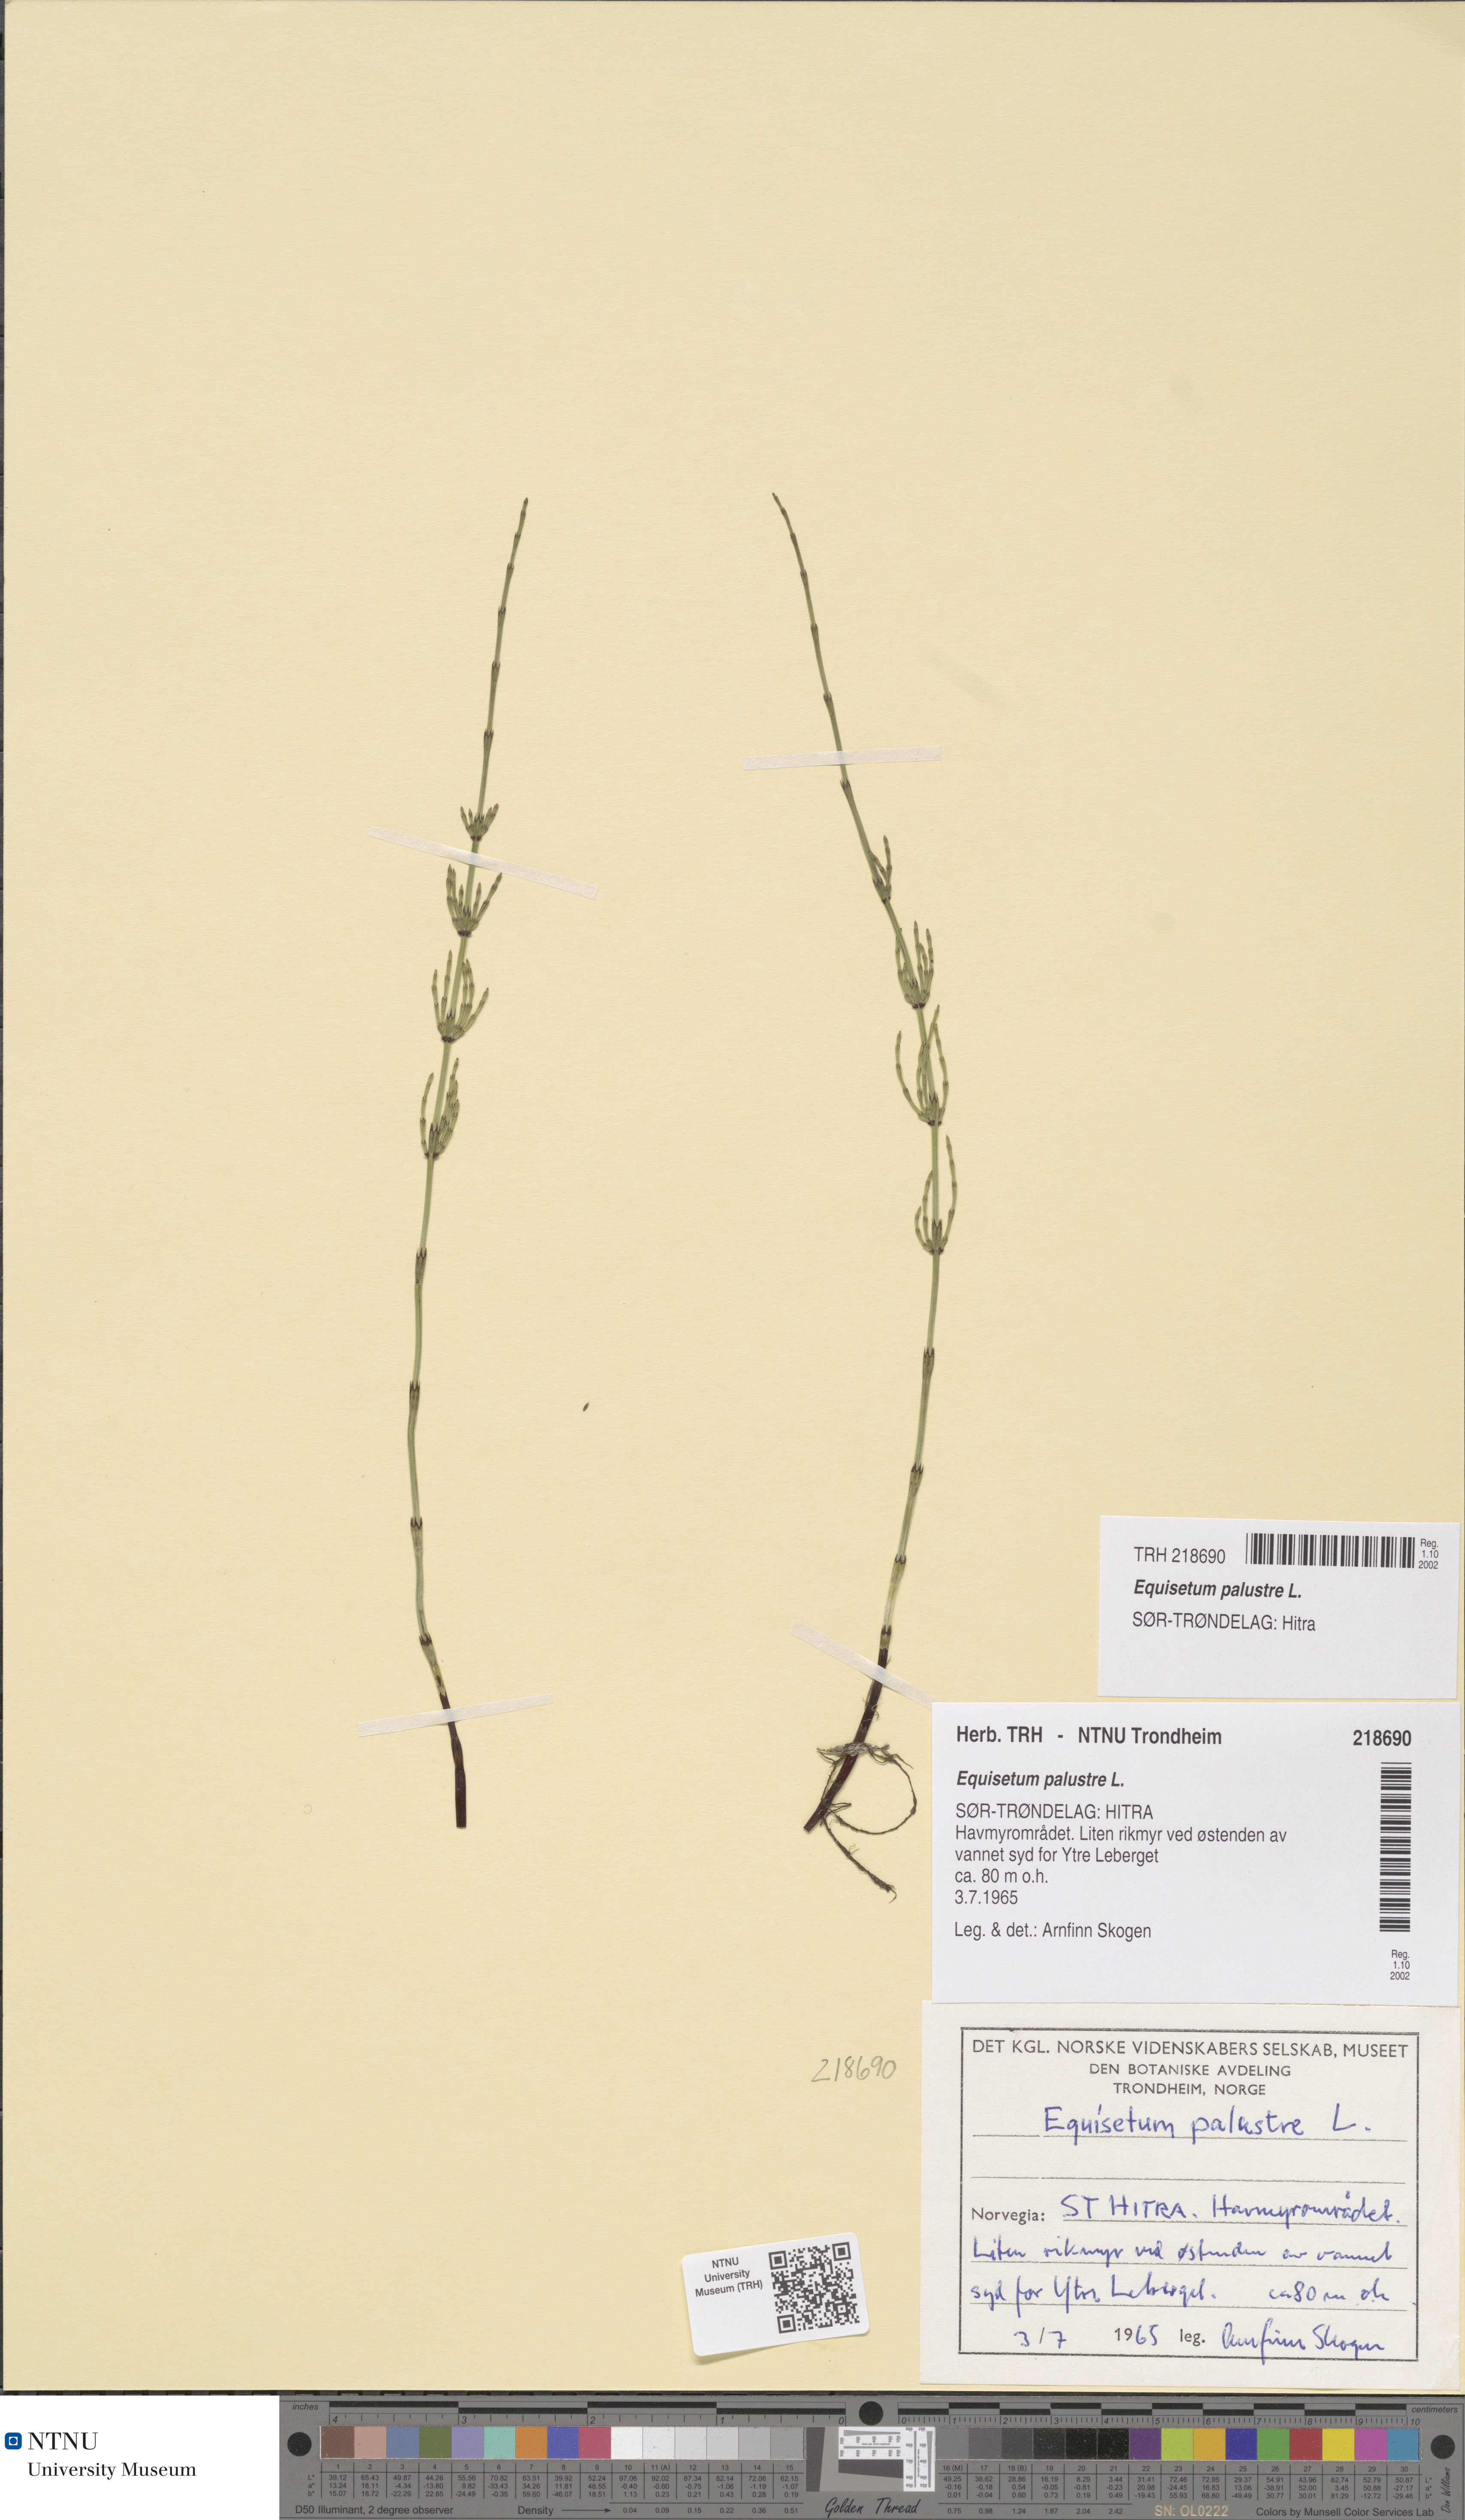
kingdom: Plantae
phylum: Tracheophyta
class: Polypodiopsida
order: Equisetales
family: Equisetaceae
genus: Equisetum
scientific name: Equisetum palustre
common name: Marsh horsetail
